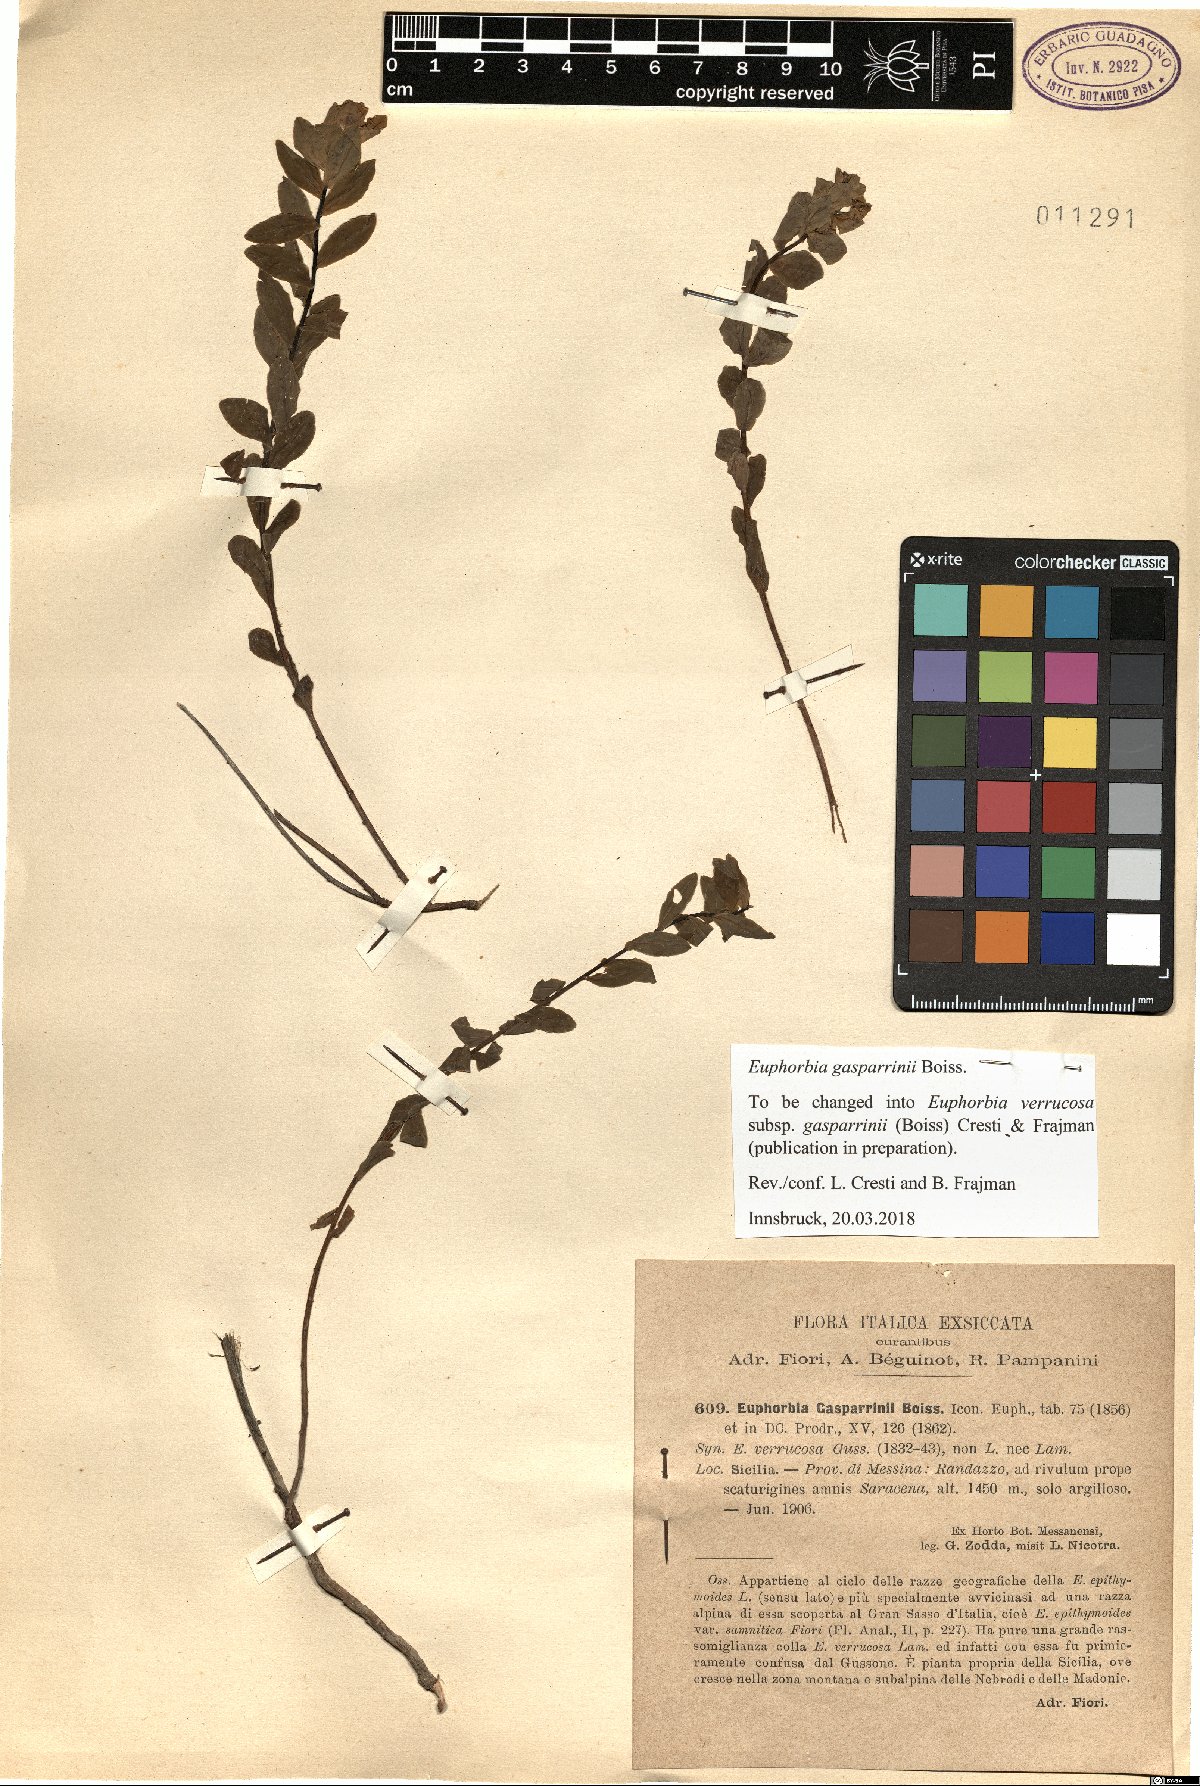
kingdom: Plantae
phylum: Tracheophyta
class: Magnoliopsida
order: Malpighiales
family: Euphorbiaceae
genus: Euphorbia
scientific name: Euphorbia gasparrinii
